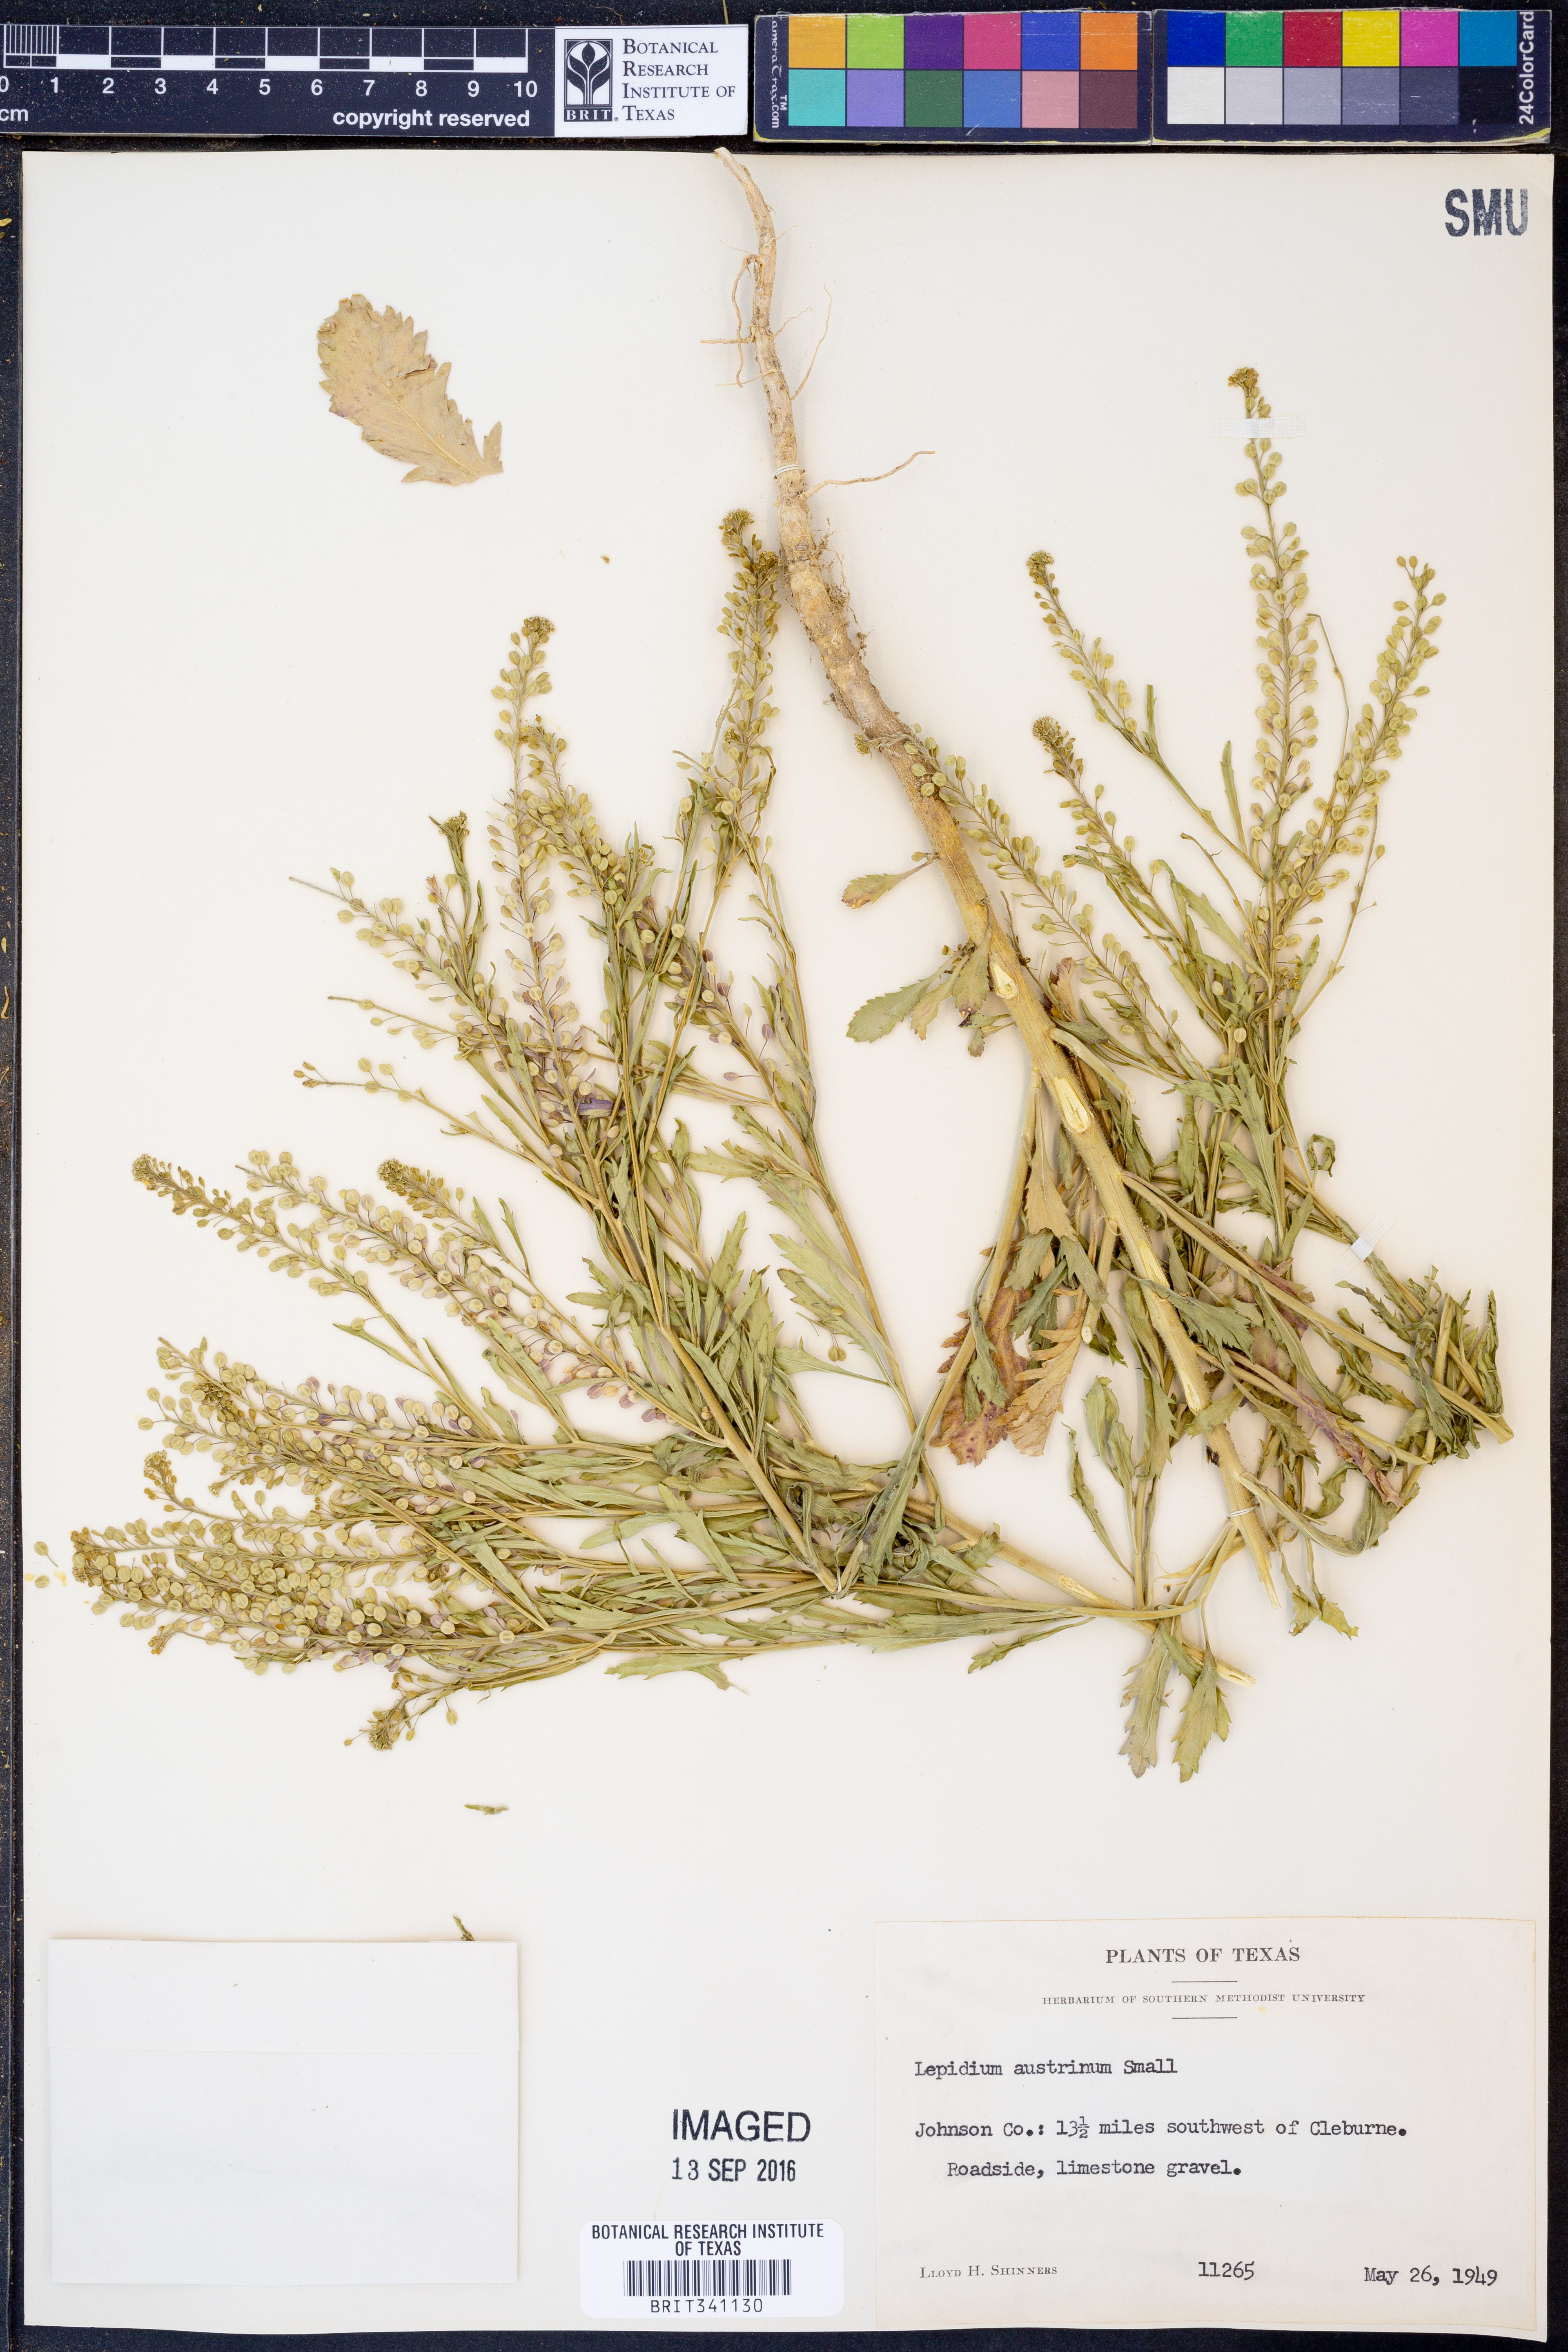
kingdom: Plantae
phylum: Tracheophyta
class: Magnoliopsida
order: Brassicales
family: Brassicaceae
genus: Lepidium
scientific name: Lepidium austrinum
